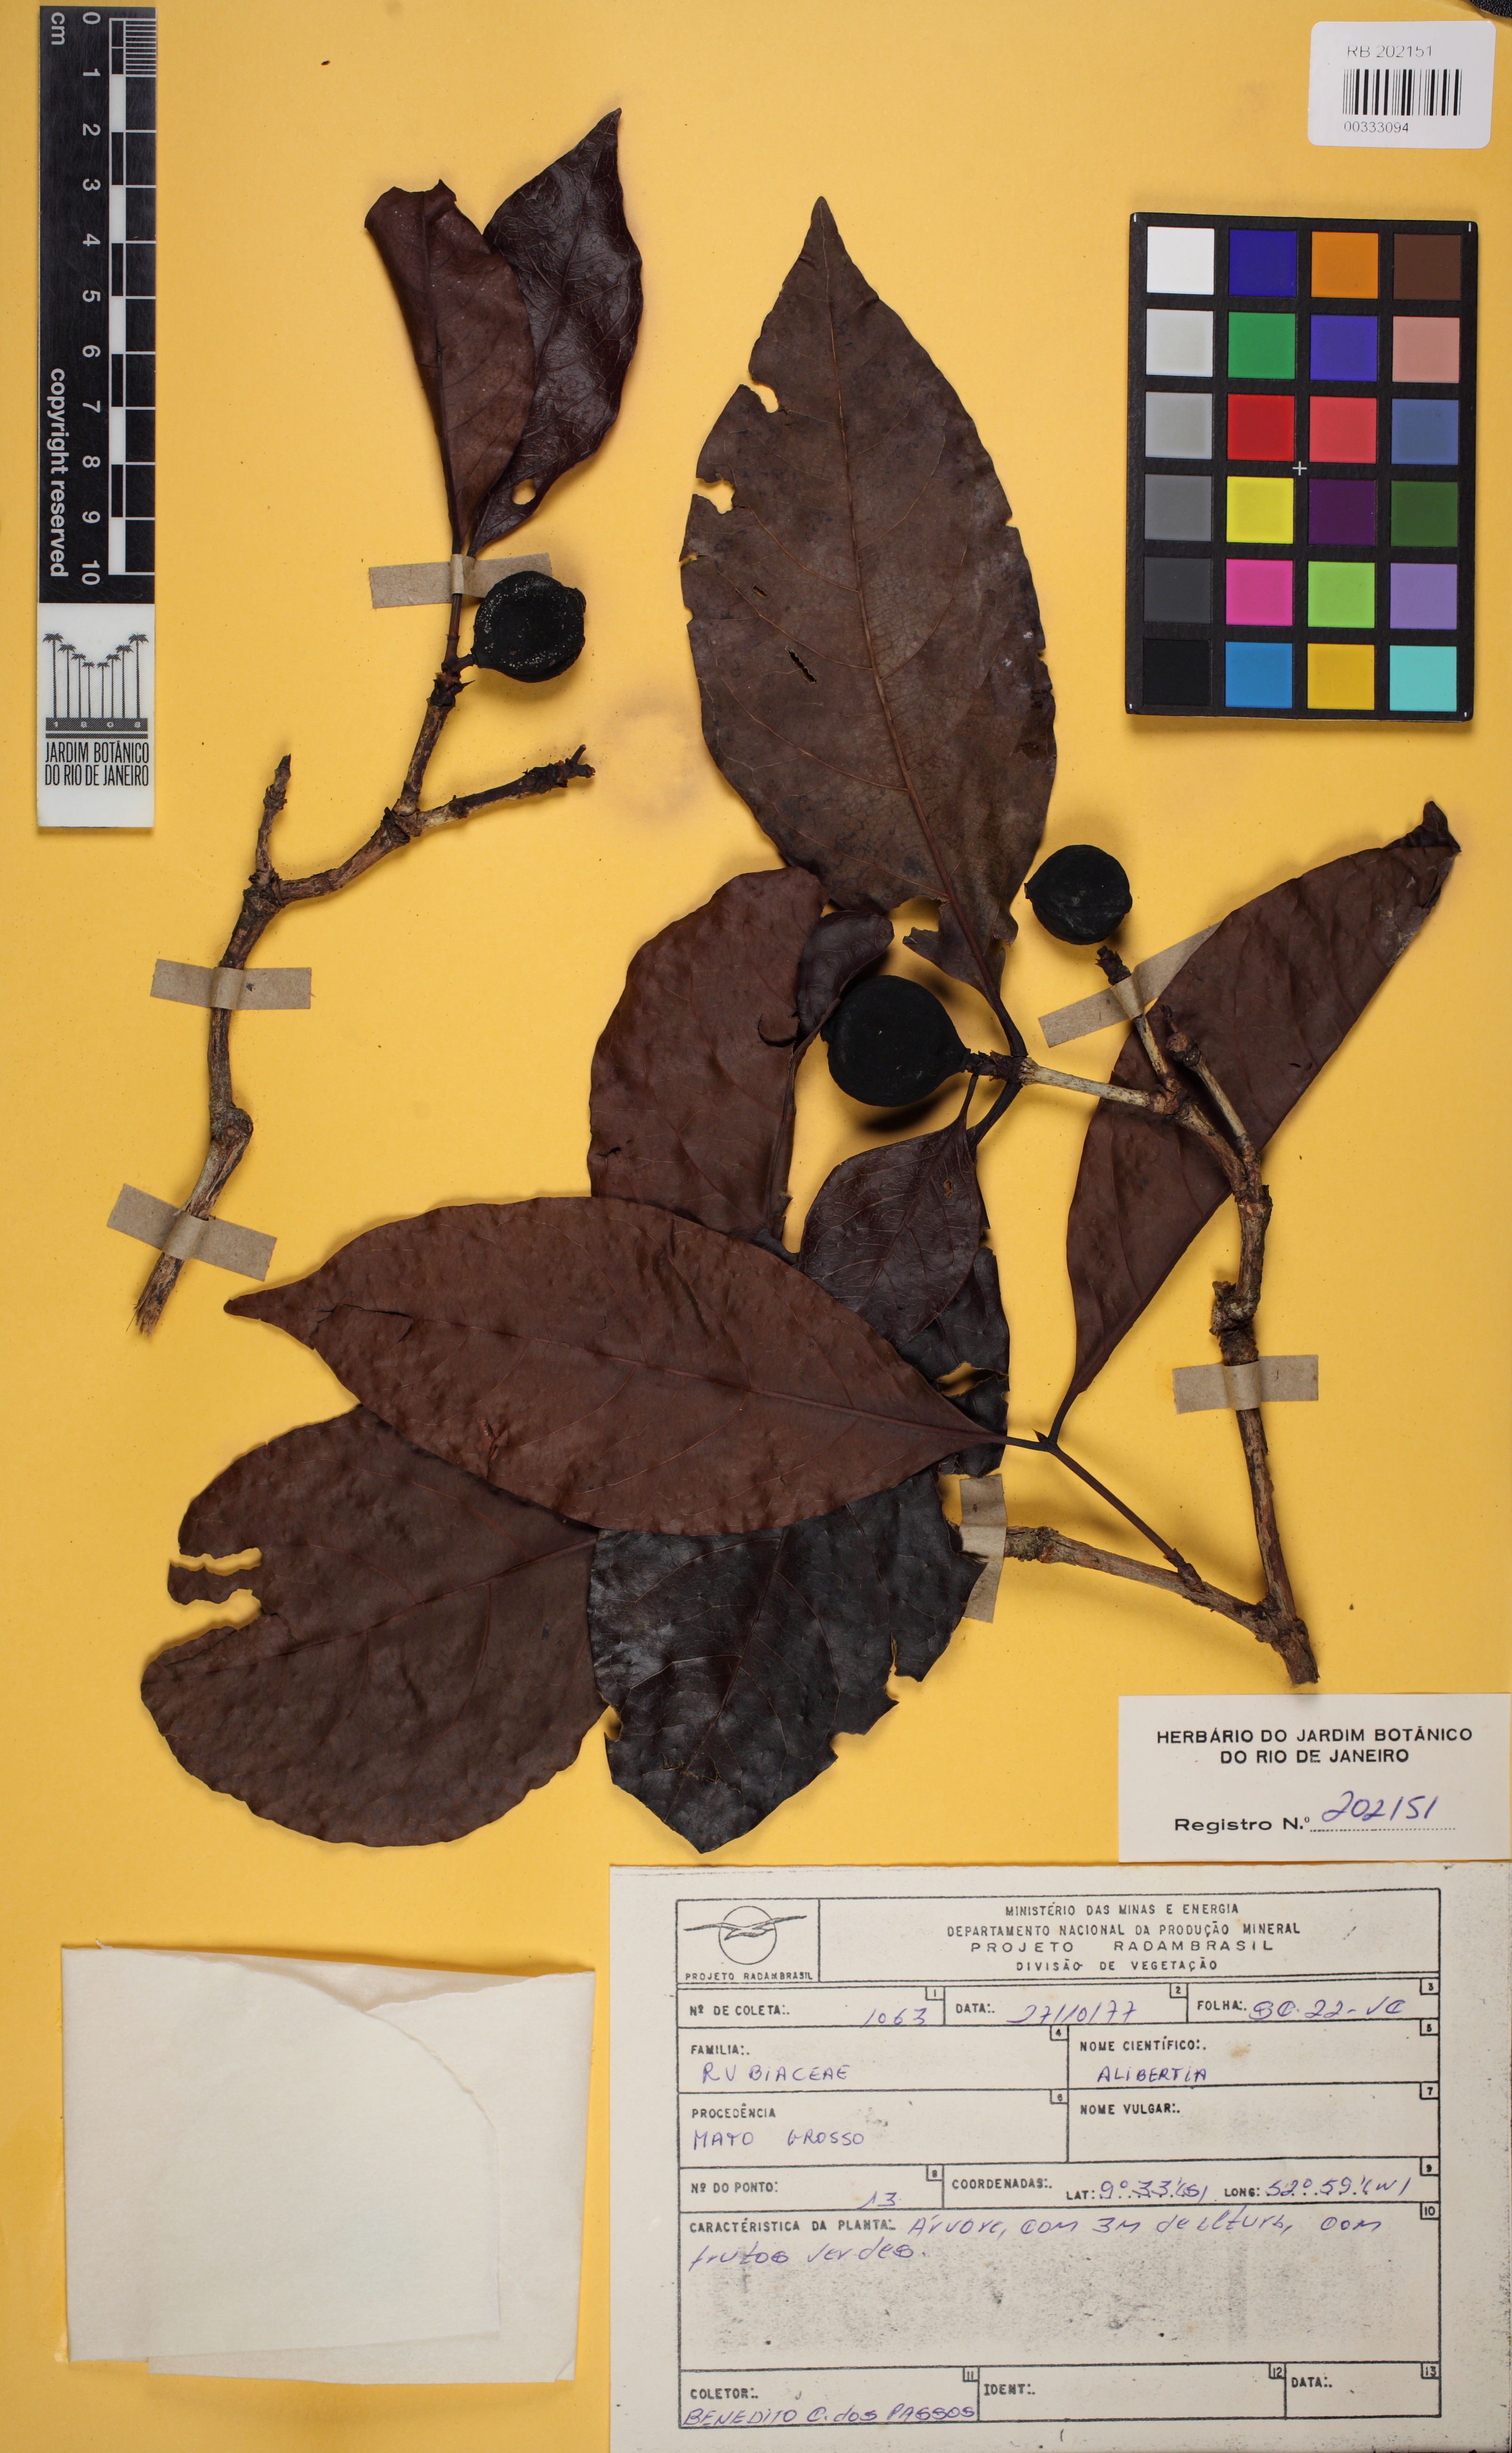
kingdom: Plantae
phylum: Tracheophyta
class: Magnoliopsida
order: Gentianales
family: Rubiaceae
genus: Cordiera
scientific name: Cordiera sessilis
